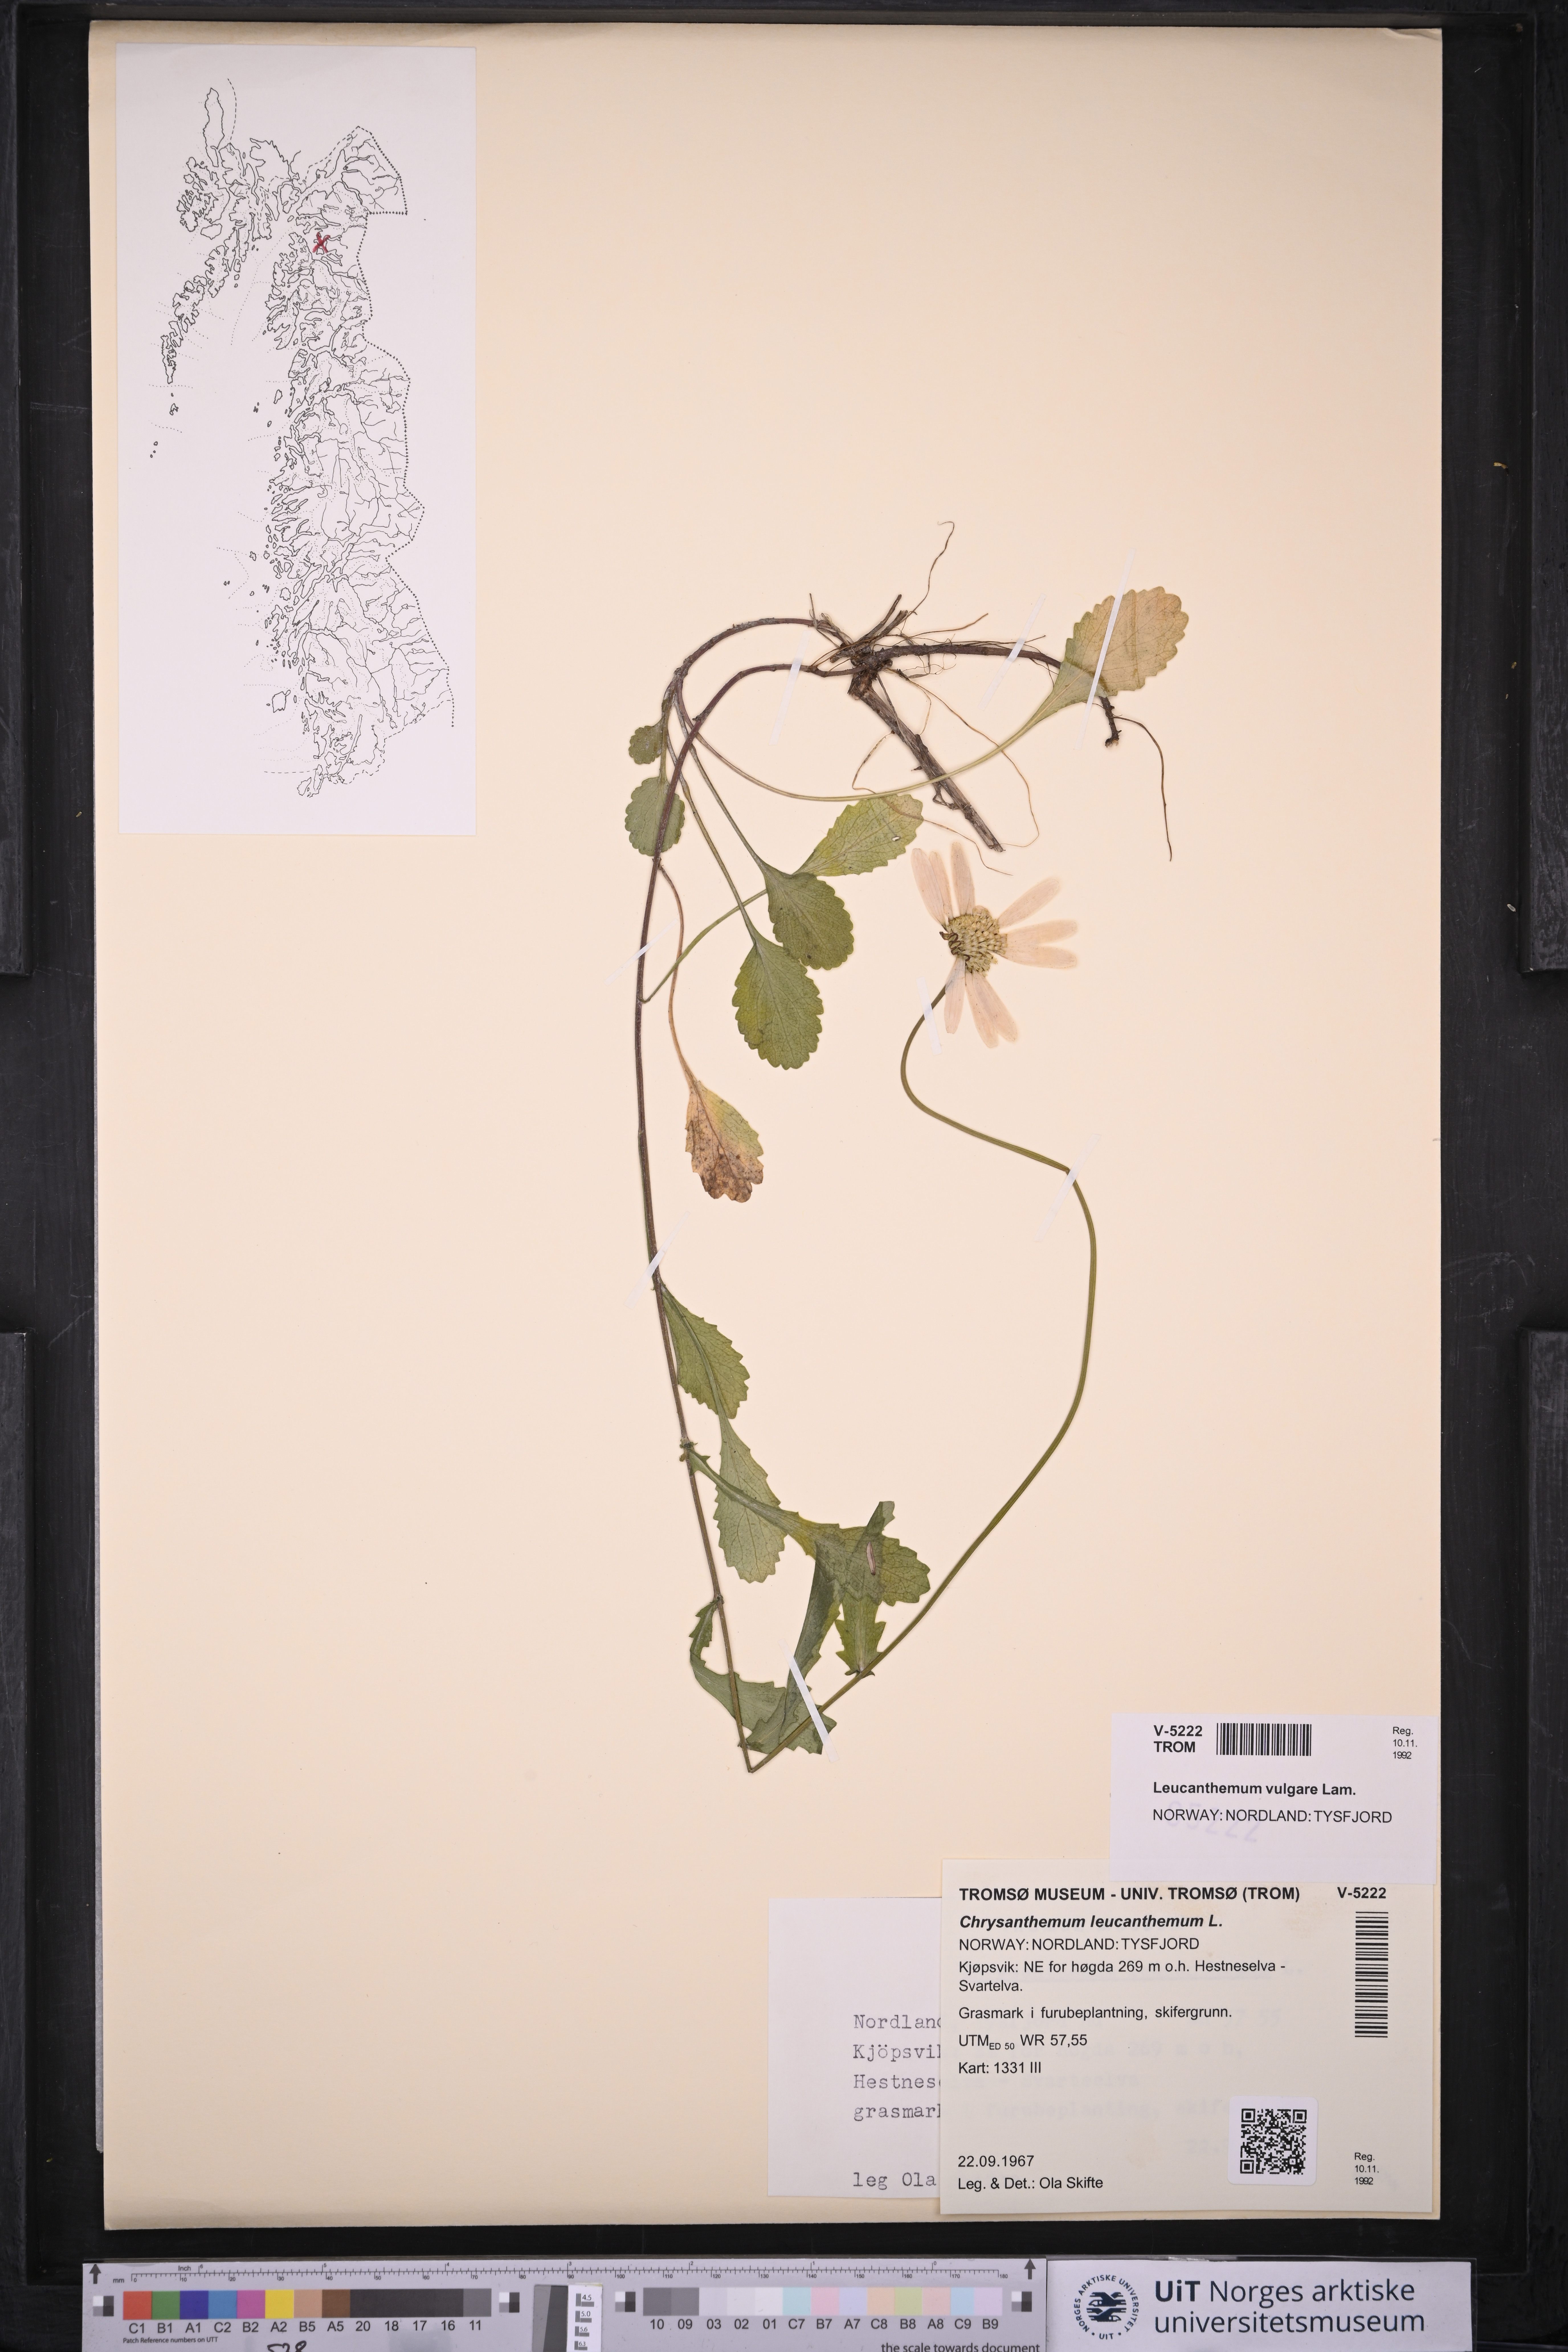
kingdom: Plantae
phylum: Tracheophyta
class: Magnoliopsida
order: Asterales
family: Asteraceae
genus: Leucanthemum
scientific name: Leucanthemum vulgare
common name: Oxeye daisy
